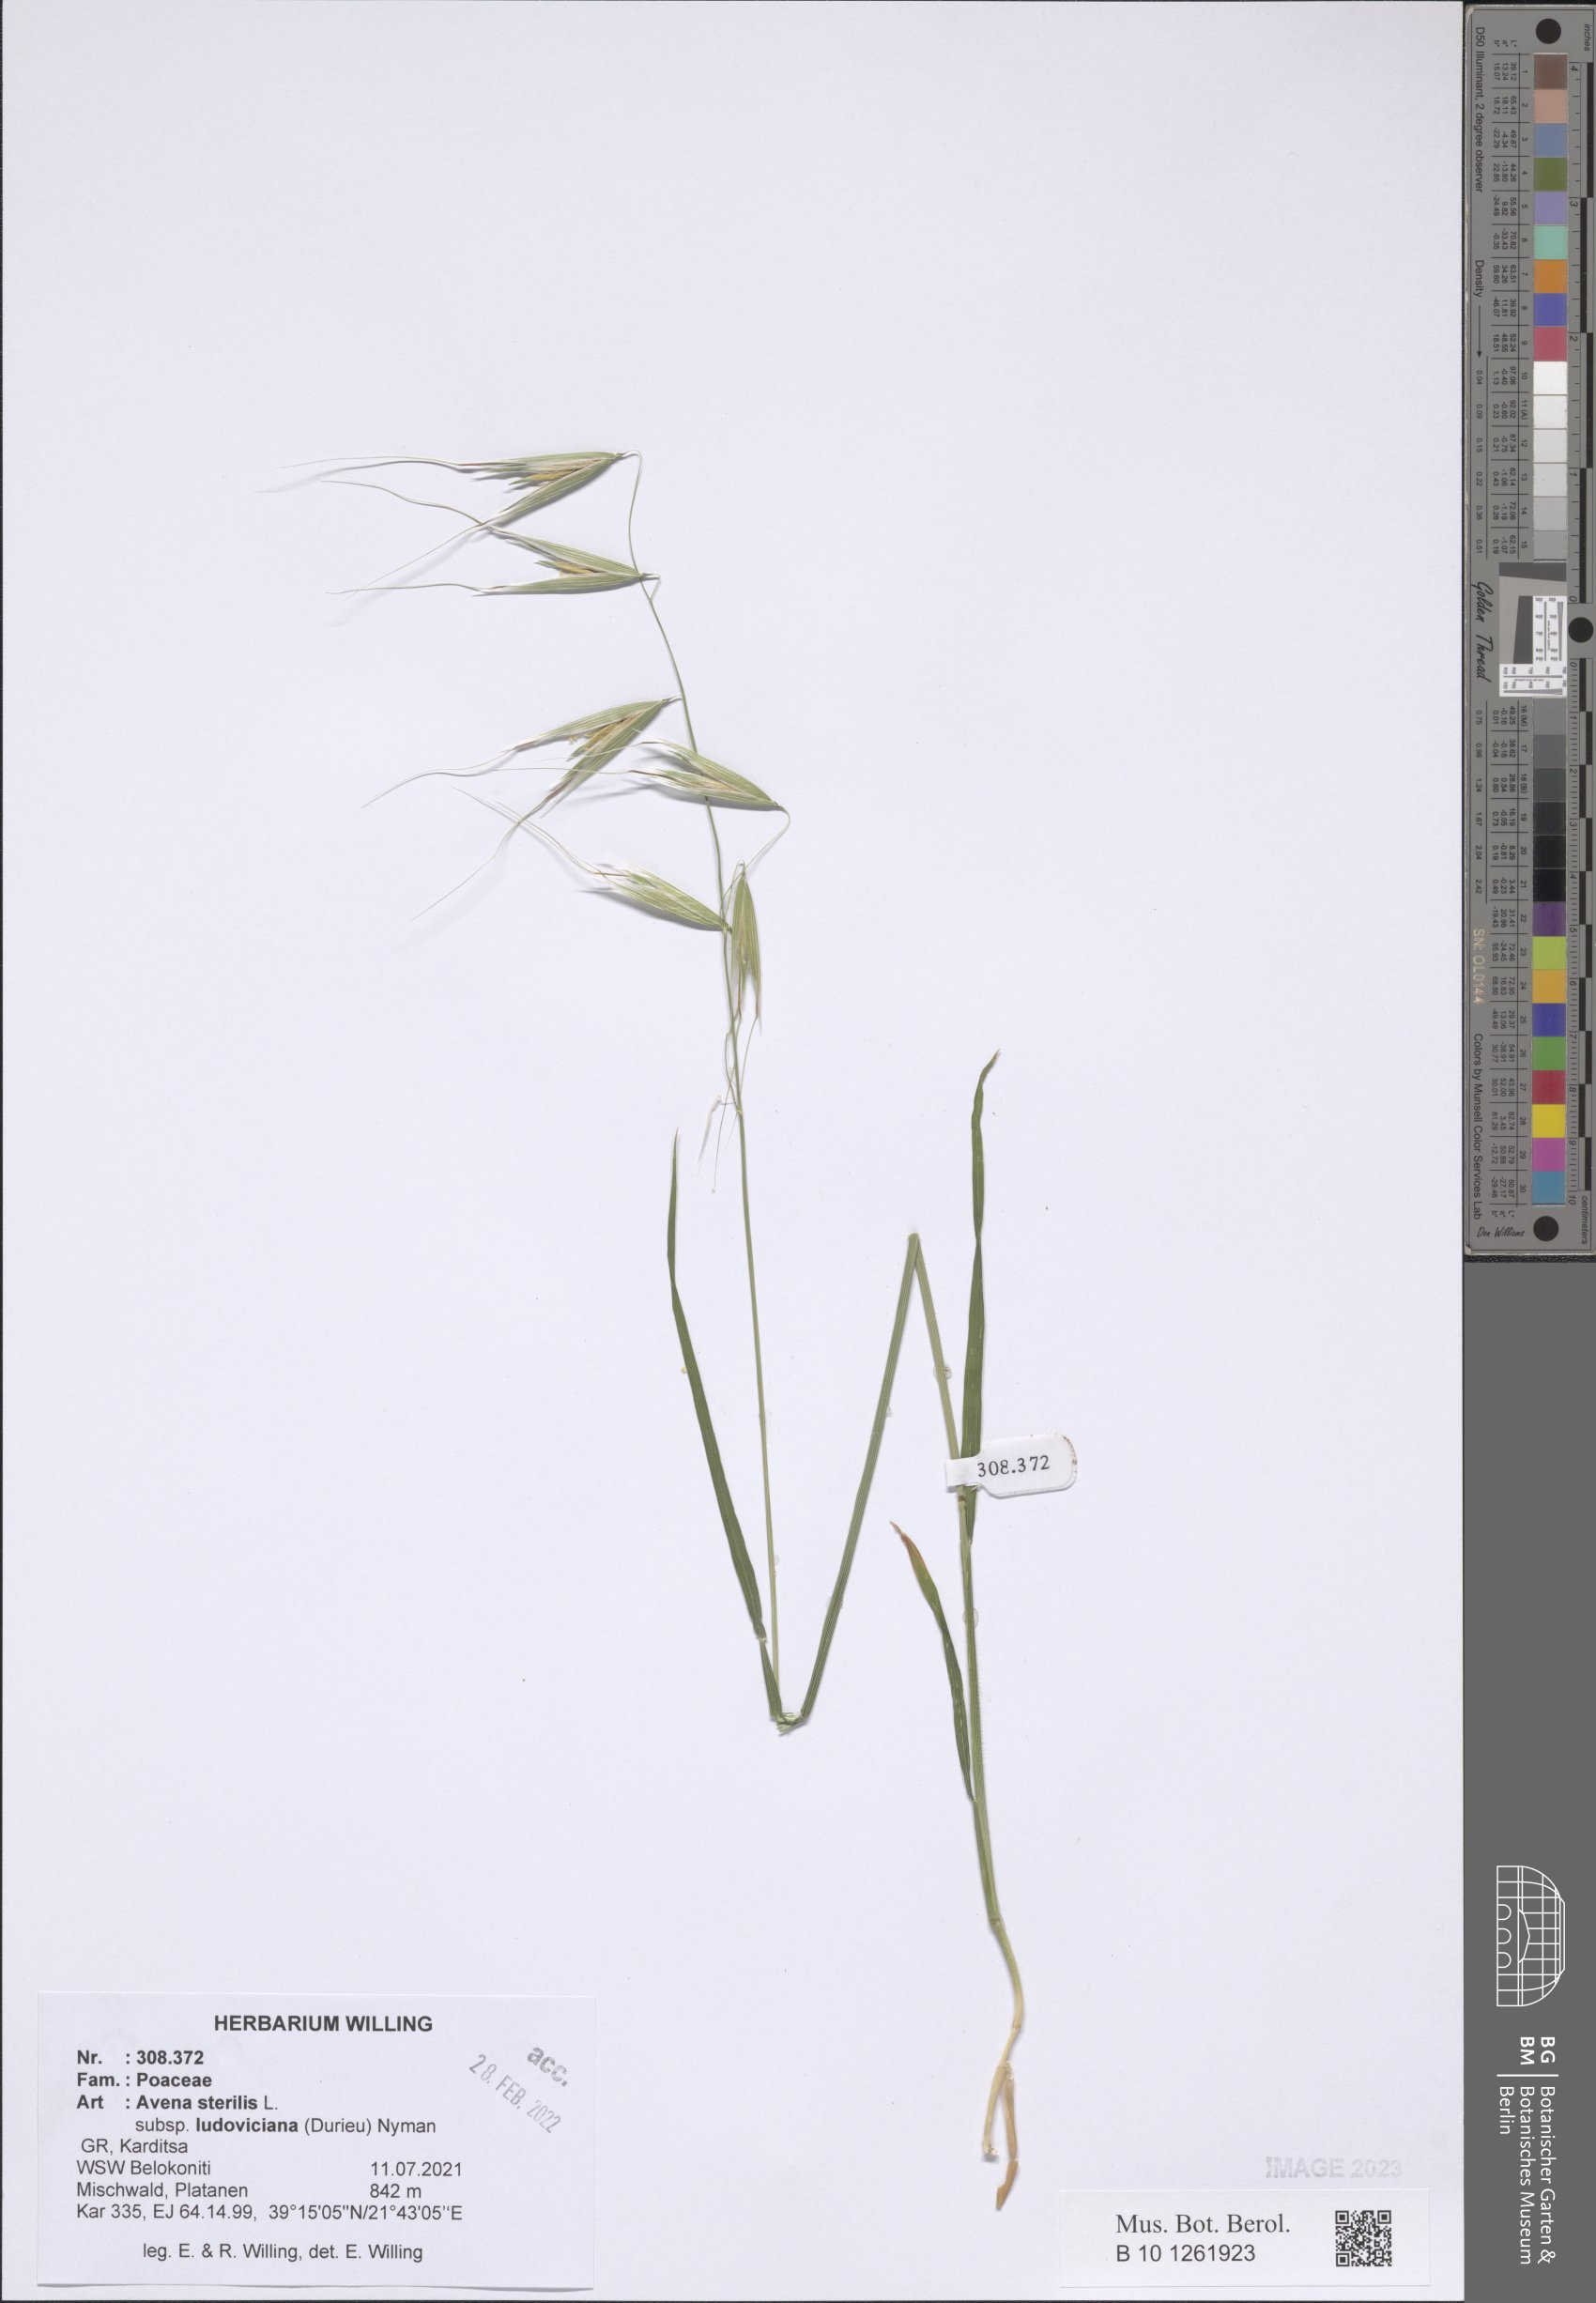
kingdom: Plantae
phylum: Tracheophyta
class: Liliopsida
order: Poales
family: Poaceae
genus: Avena
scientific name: Avena sterilis
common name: Animated oat
